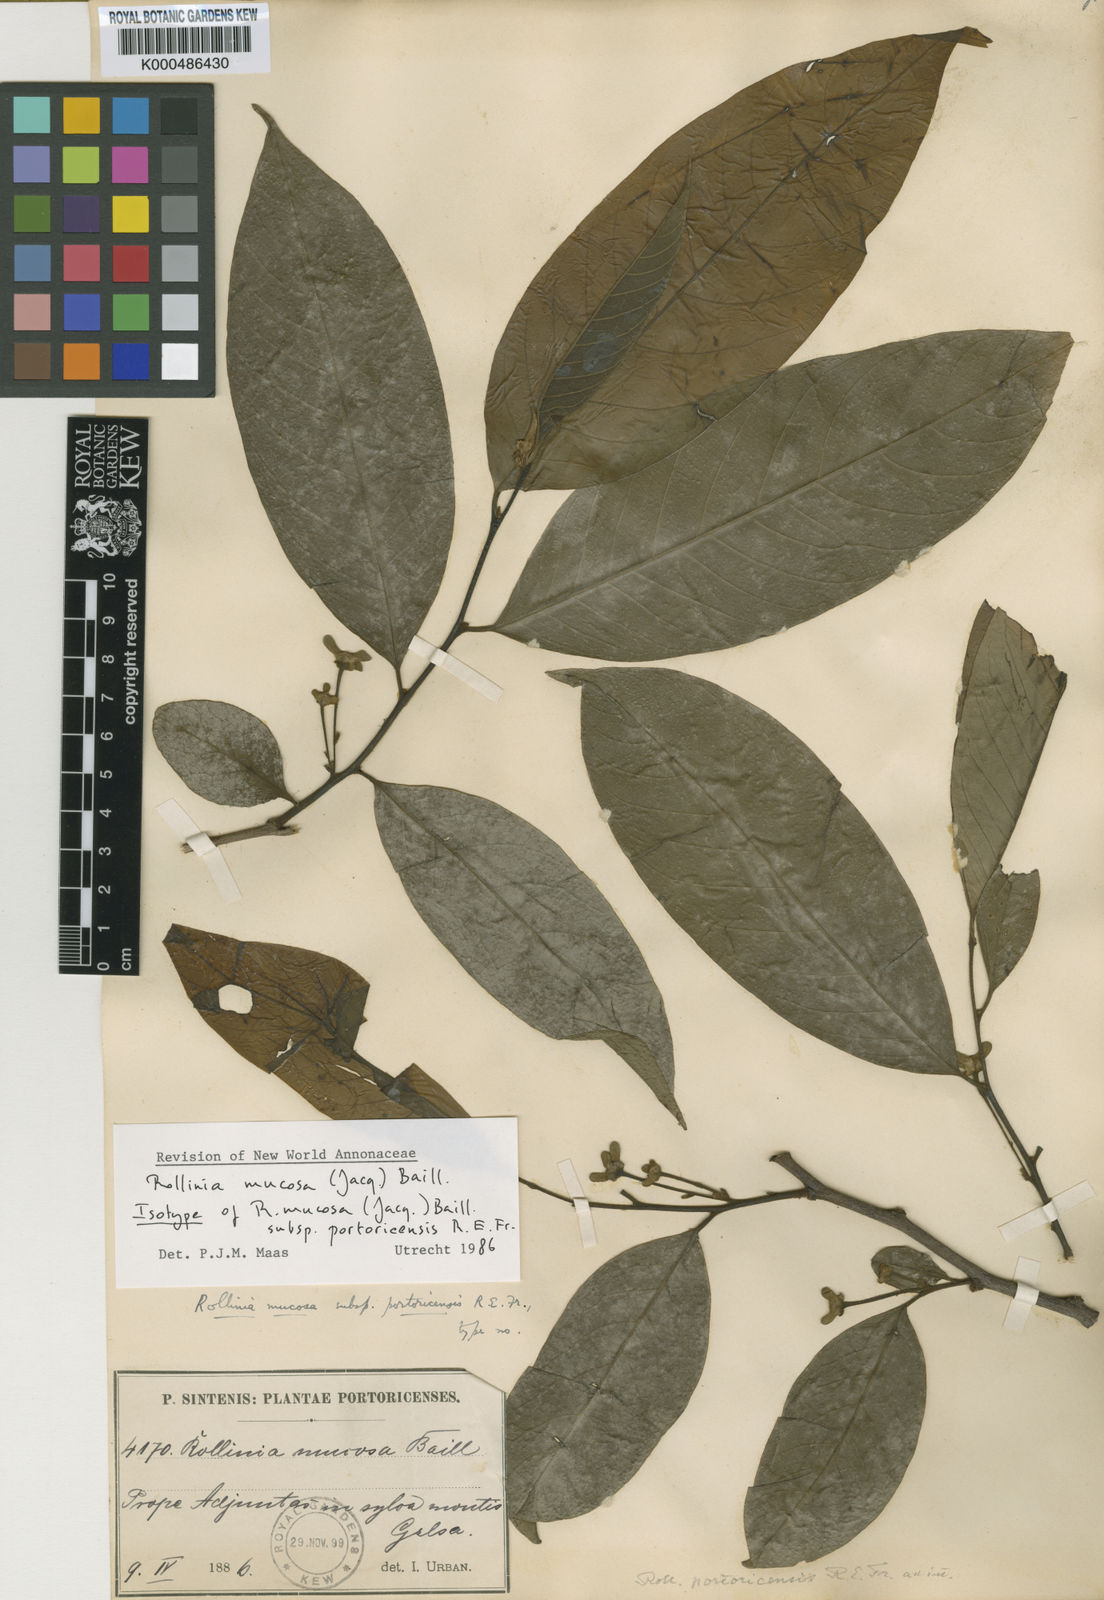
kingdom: Plantae
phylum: Tracheophyta
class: Magnoliopsida
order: Magnoliales
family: Annonaceae
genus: Annona
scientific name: Annona mucosa
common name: Sugar apple
